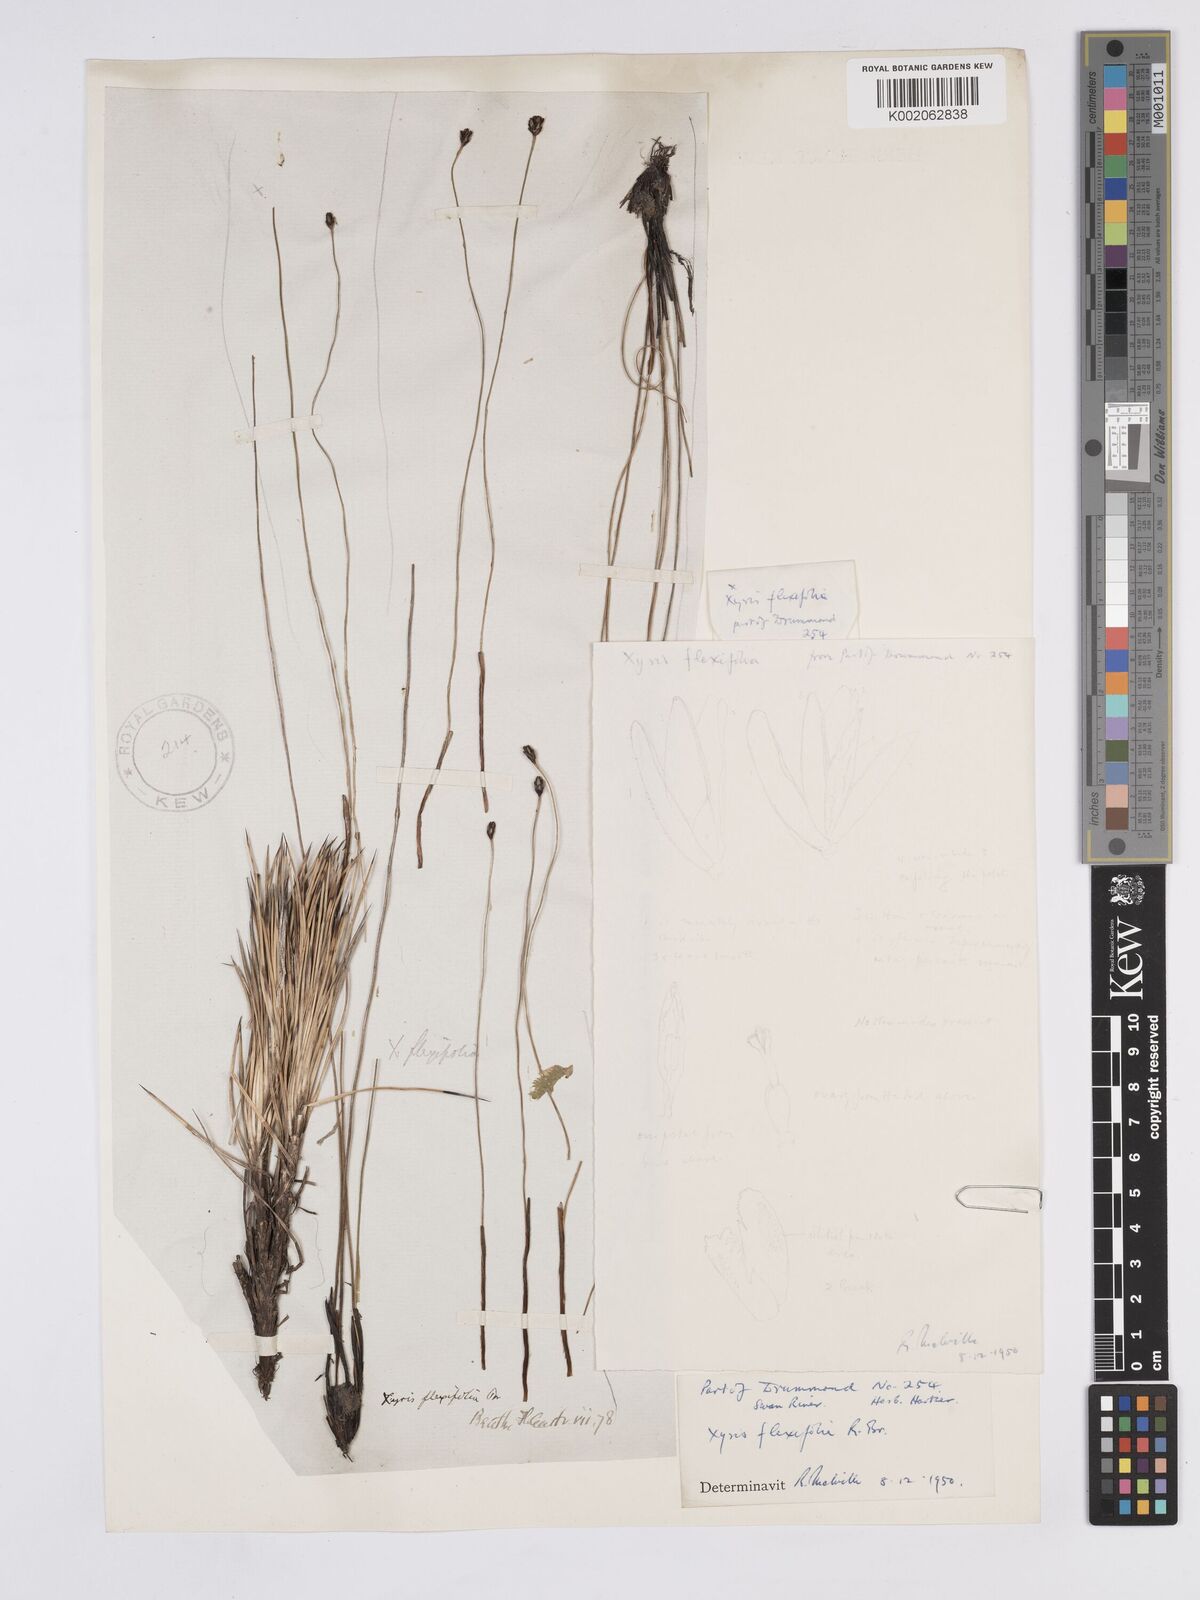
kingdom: Plantae
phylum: Tracheophyta
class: Liliopsida
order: Poales
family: Xyridaceae
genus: Xyris
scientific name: Xyris flexifolia
